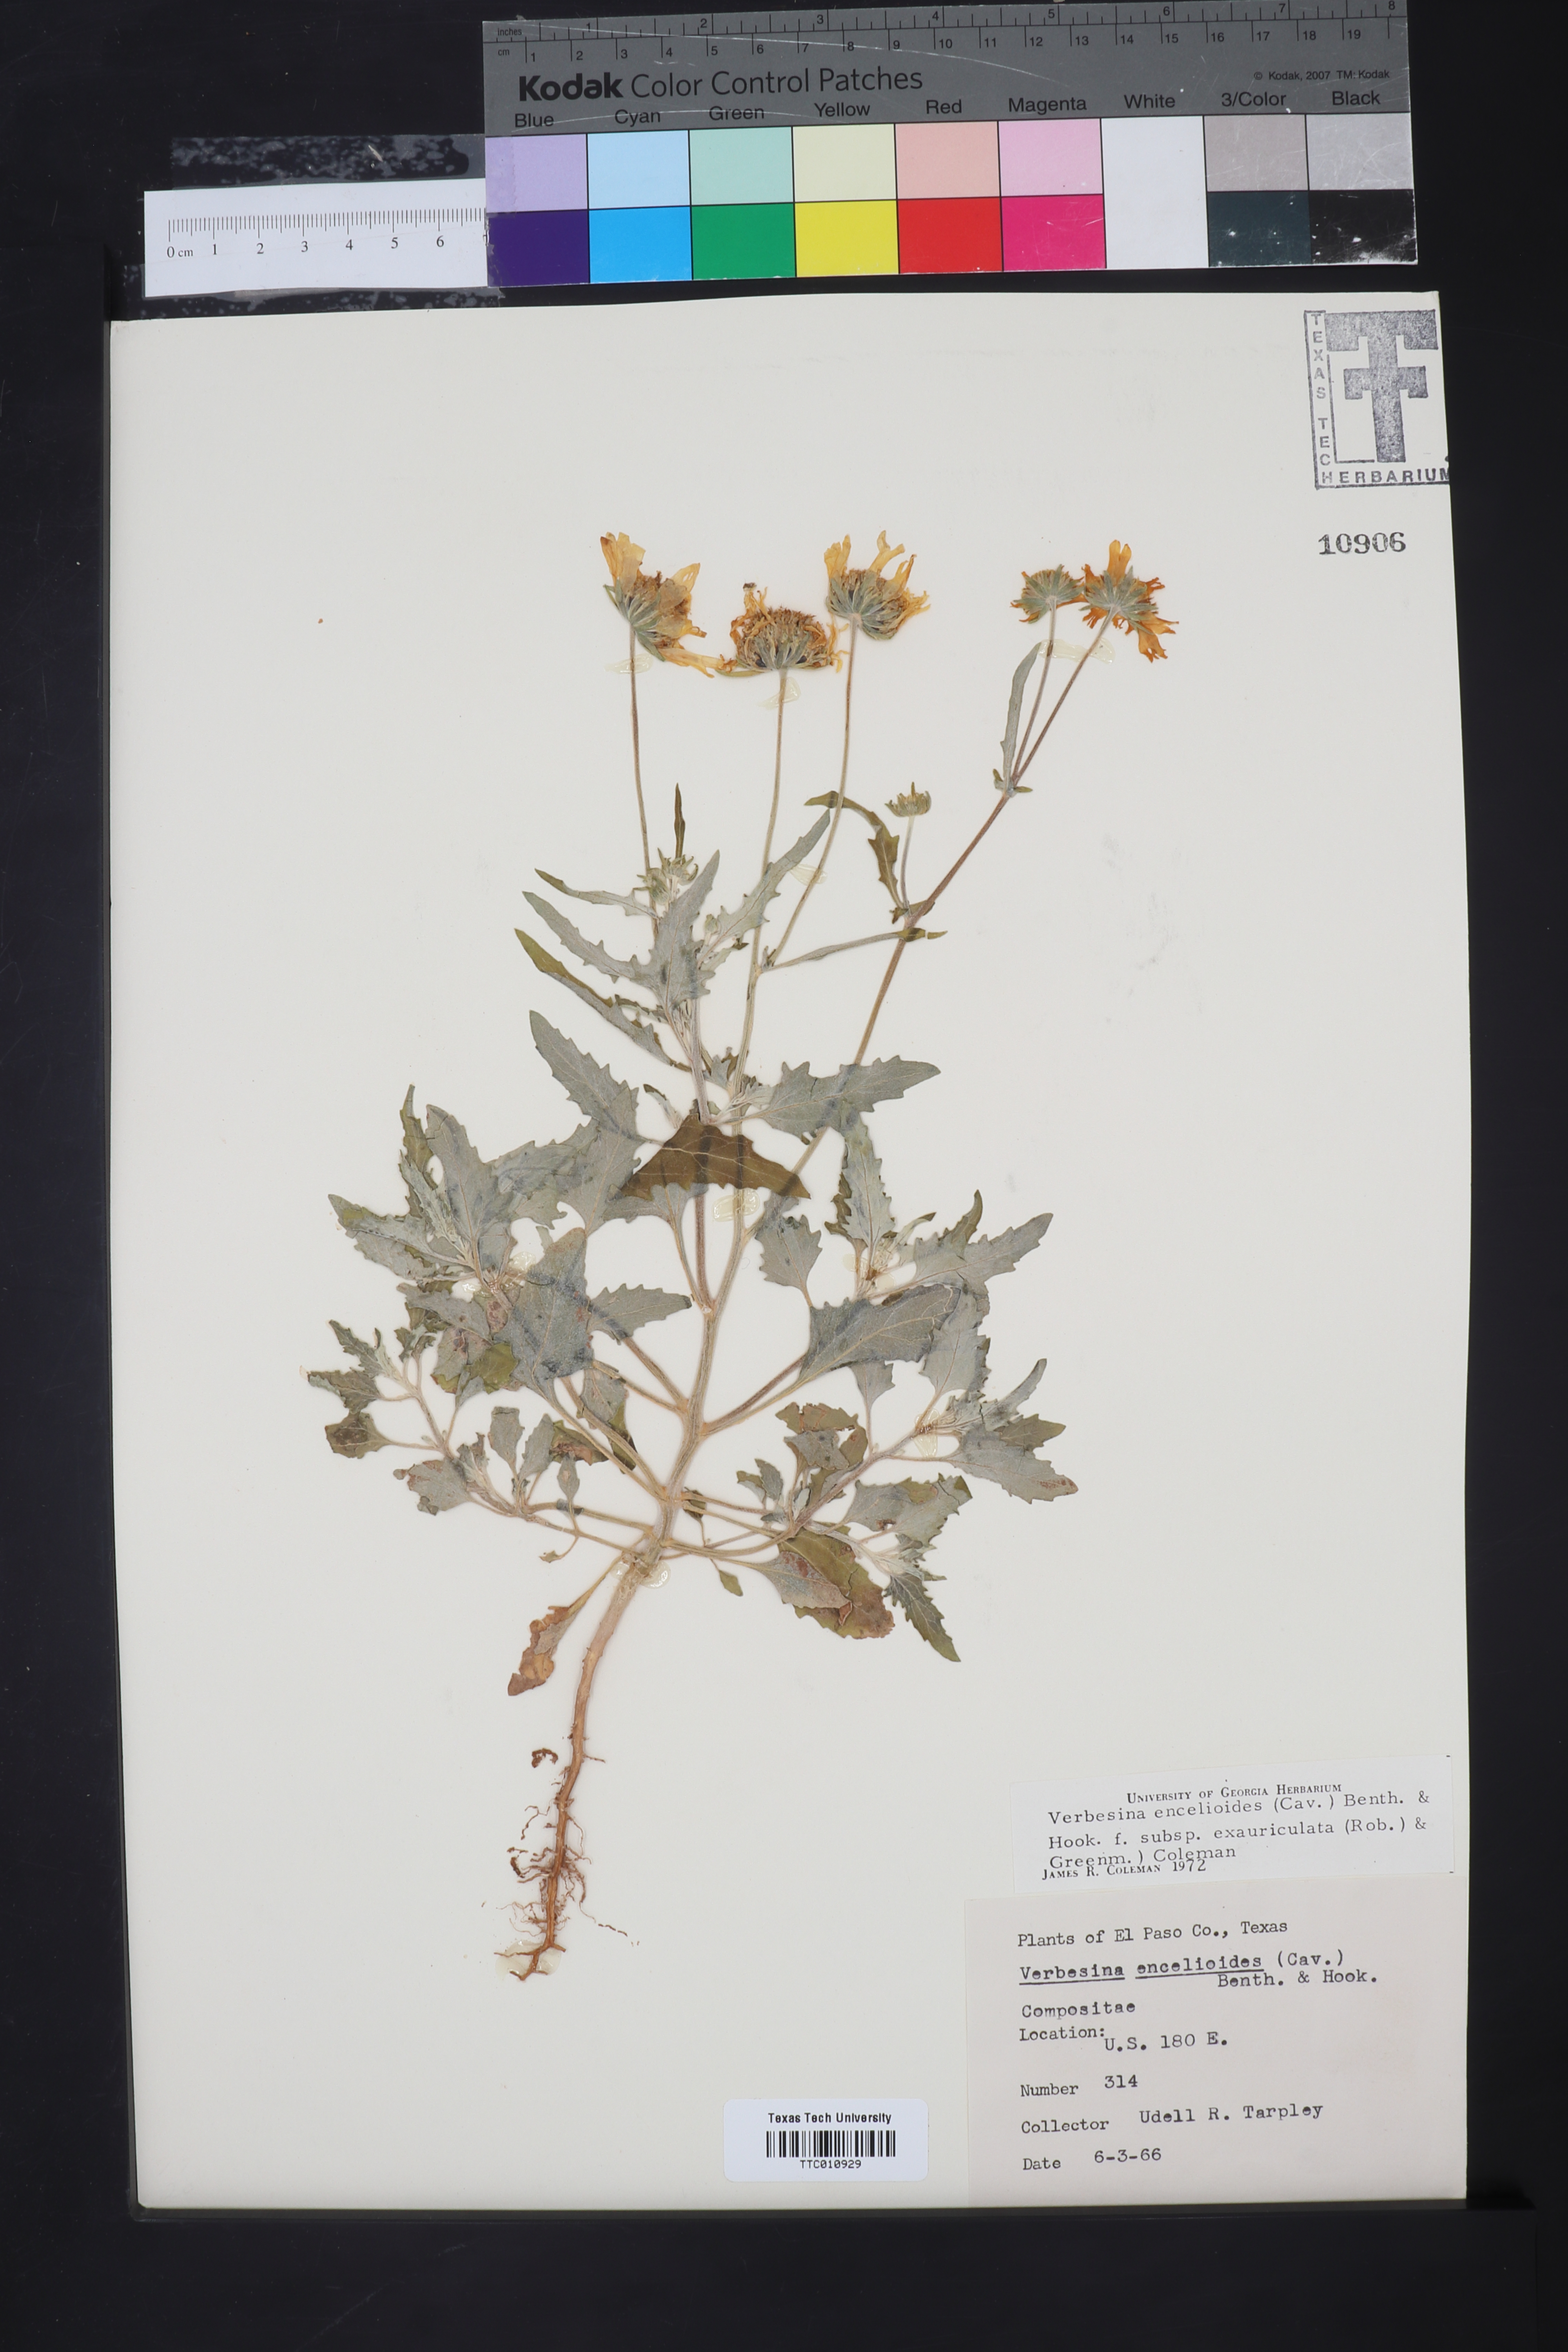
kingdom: Plantae
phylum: Tracheophyta
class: Magnoliopsida
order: Asterales
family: Asteraceae
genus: Verbesina
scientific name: Verbesina encelioides
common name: Golden crownbeard
